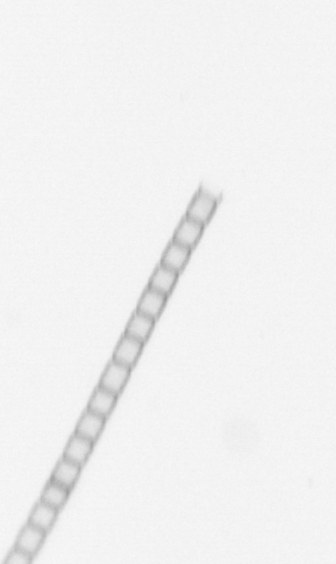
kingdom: Chromista
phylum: Ochrophyta
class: Bacillariophyceae
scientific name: Bacillariophyceae
